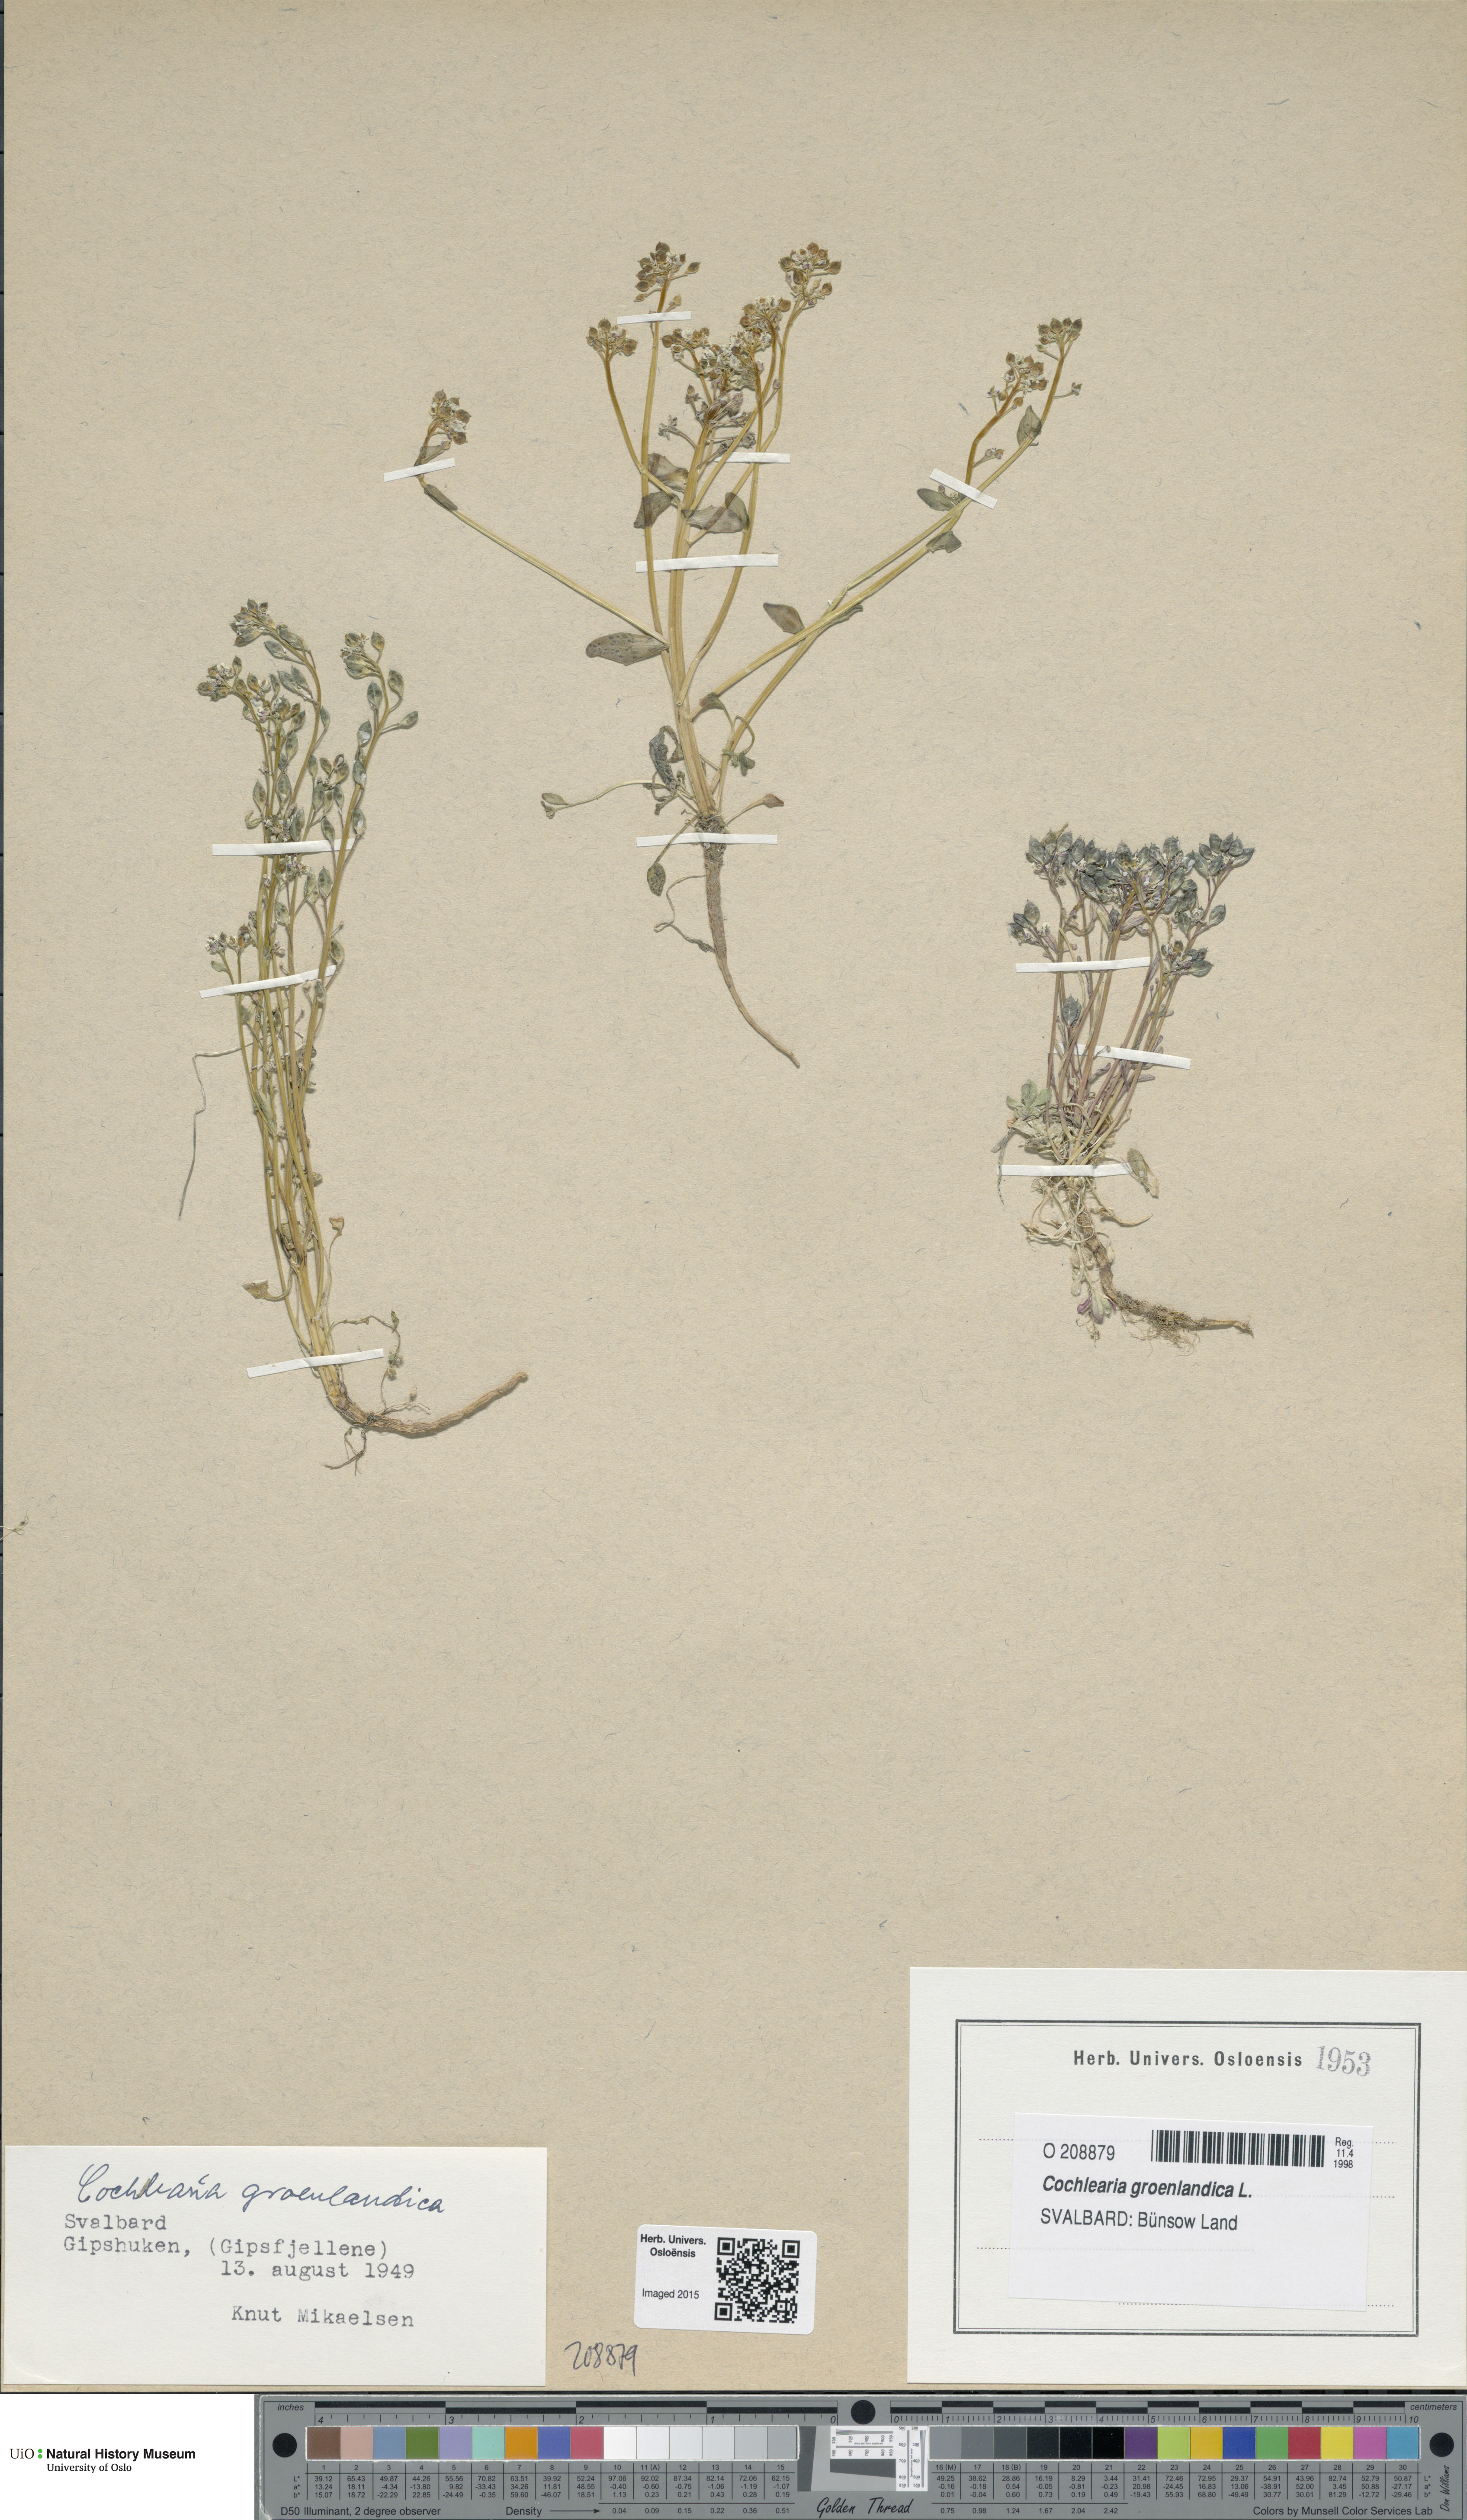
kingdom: Plantae
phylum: Tracheophyta
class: Magnoliopsida
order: Brassicales
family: Brassicaceae
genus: Cochlearia
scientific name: Cochlearia groenlandica
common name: Danish scurvygrass
